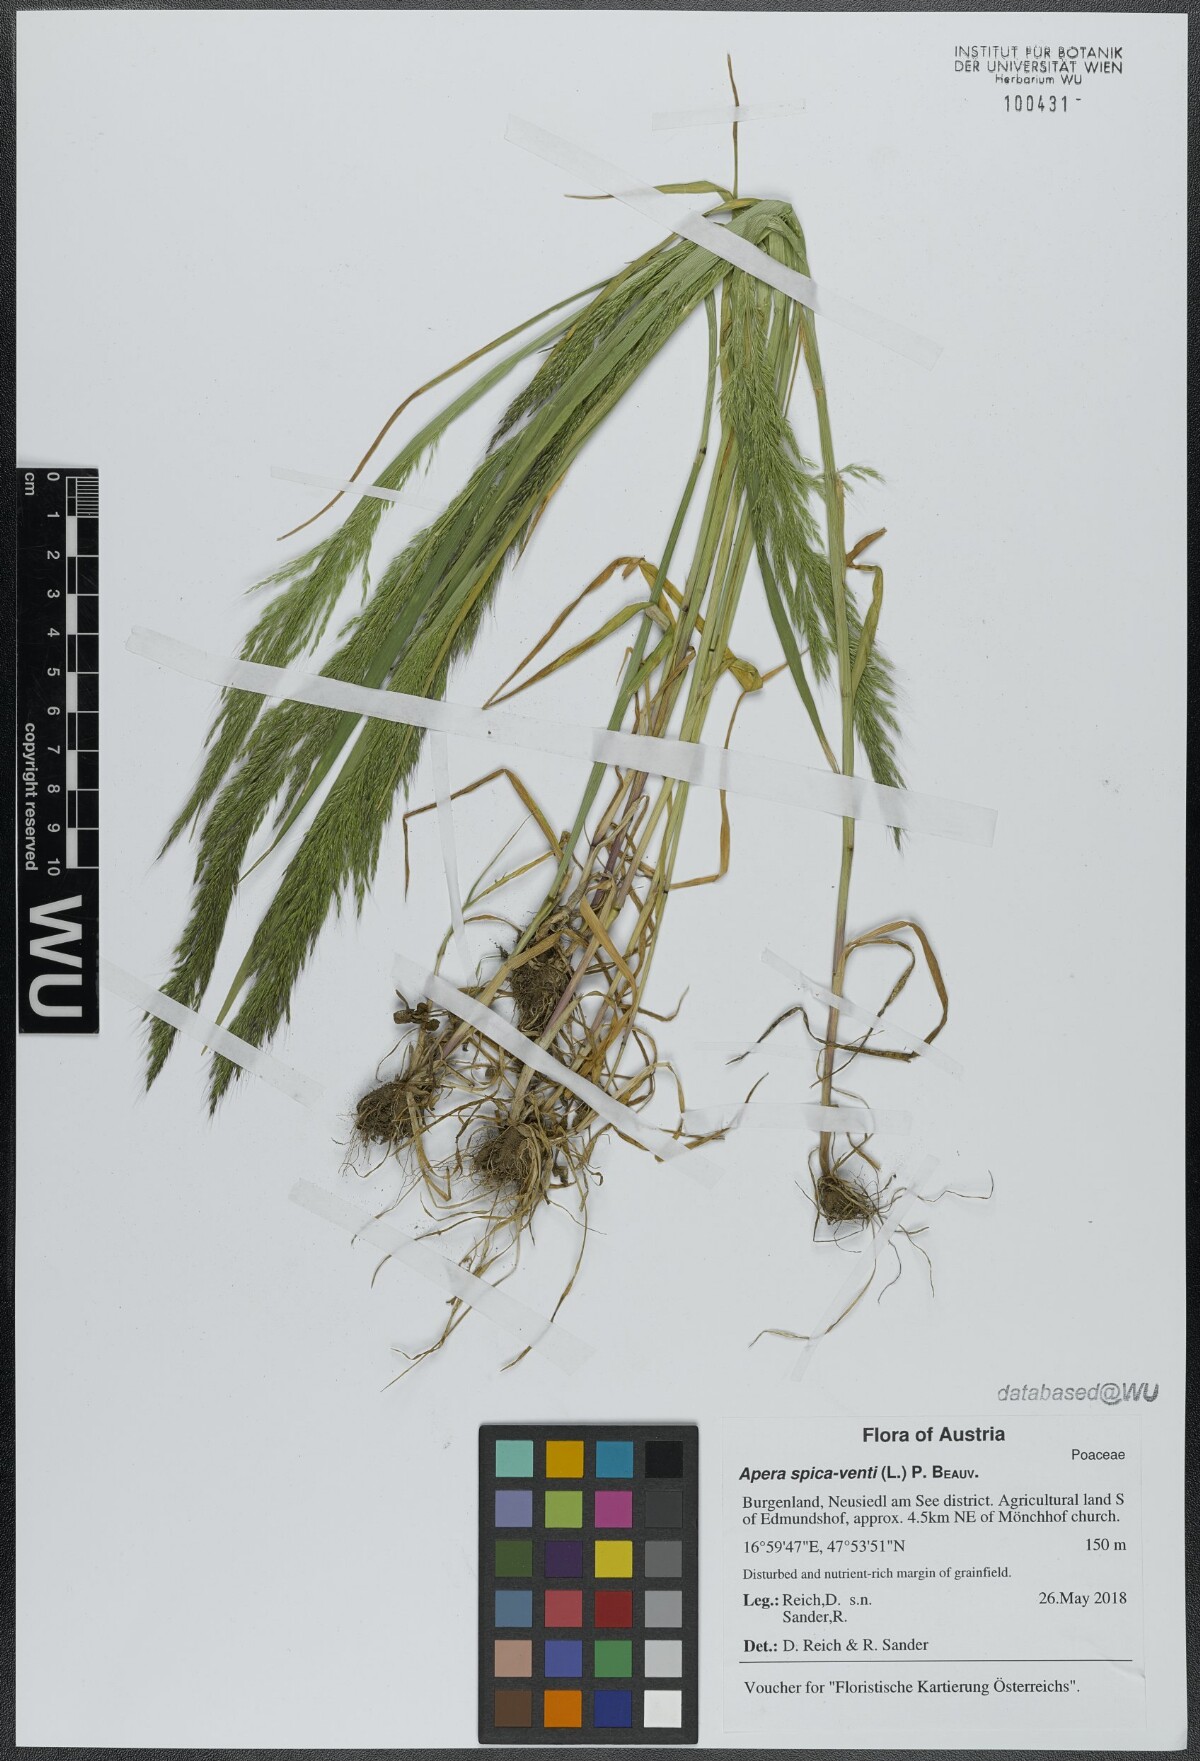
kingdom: Plantae
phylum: Tracheophyta
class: Liliopsida
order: Poales
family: Poaceae
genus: Apera
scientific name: Apera spica-venti
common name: Loose silky-bent
